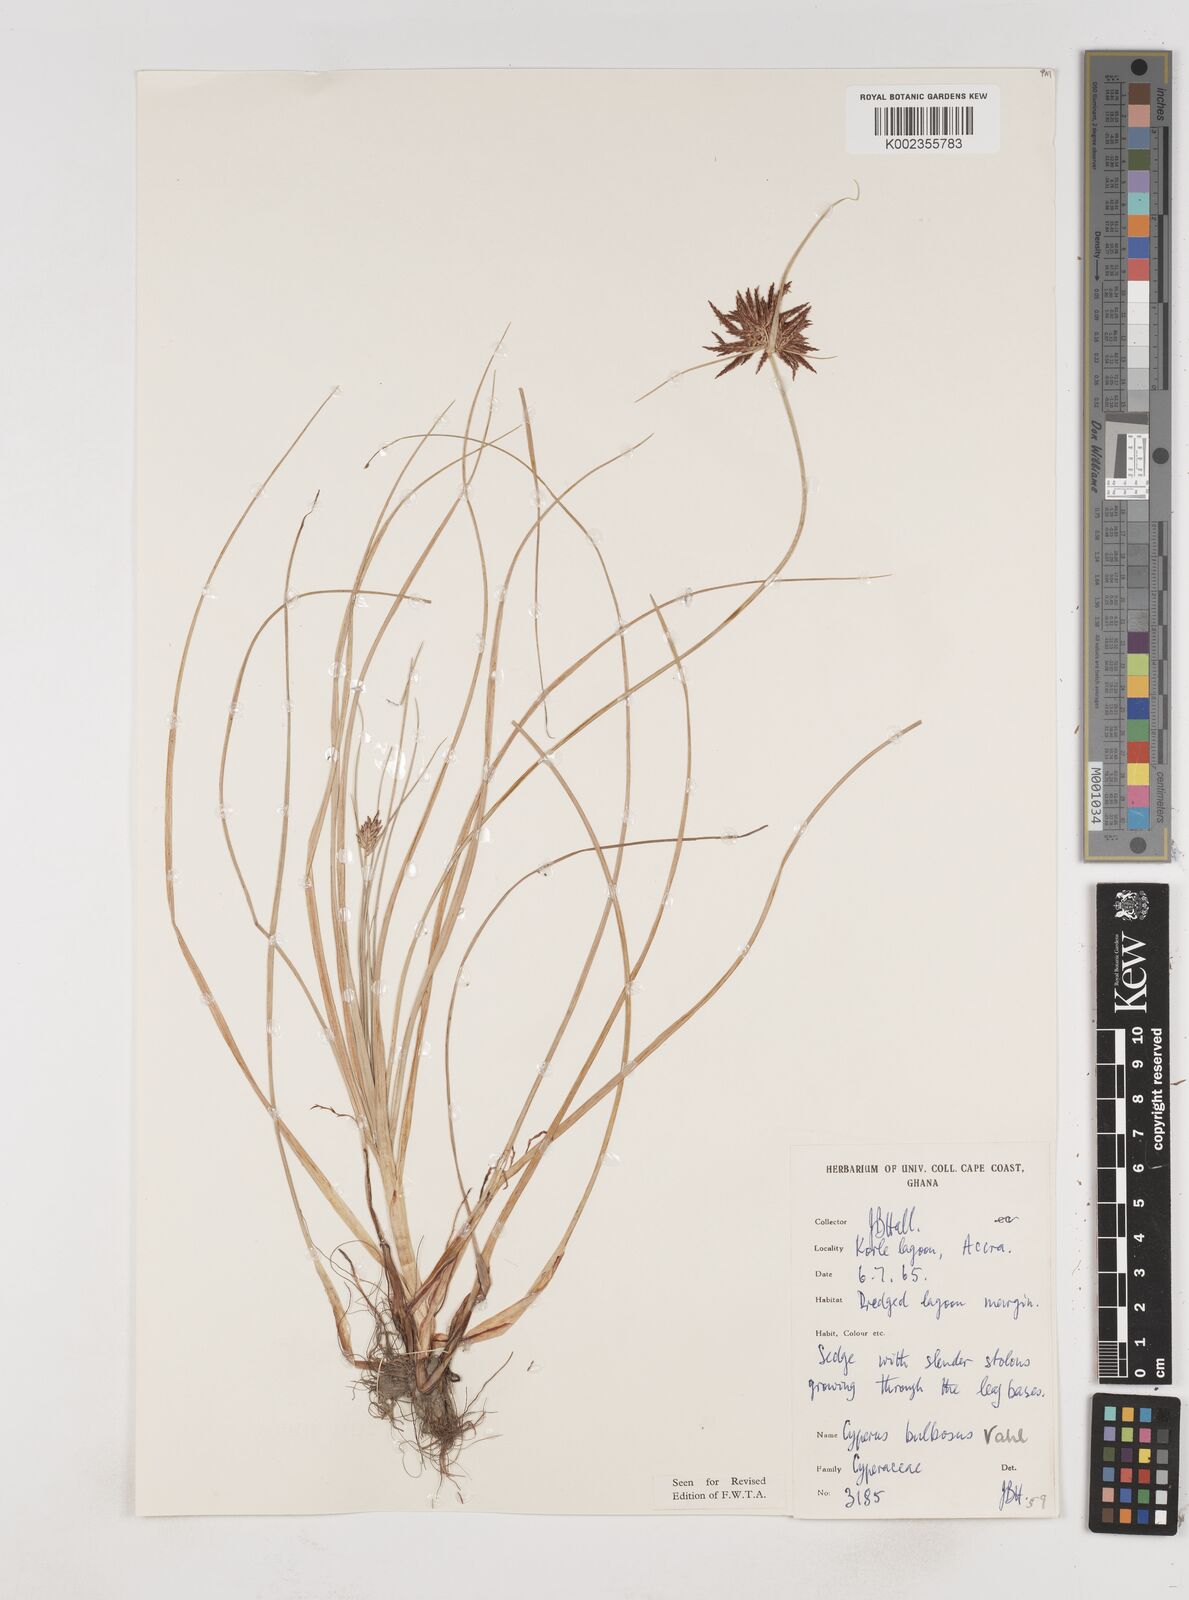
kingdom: Plantae
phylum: Tracheophyta
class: Liliopsida
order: Poales
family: Cyperaceae
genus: Cyperus
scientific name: Cyperus bulbosus
